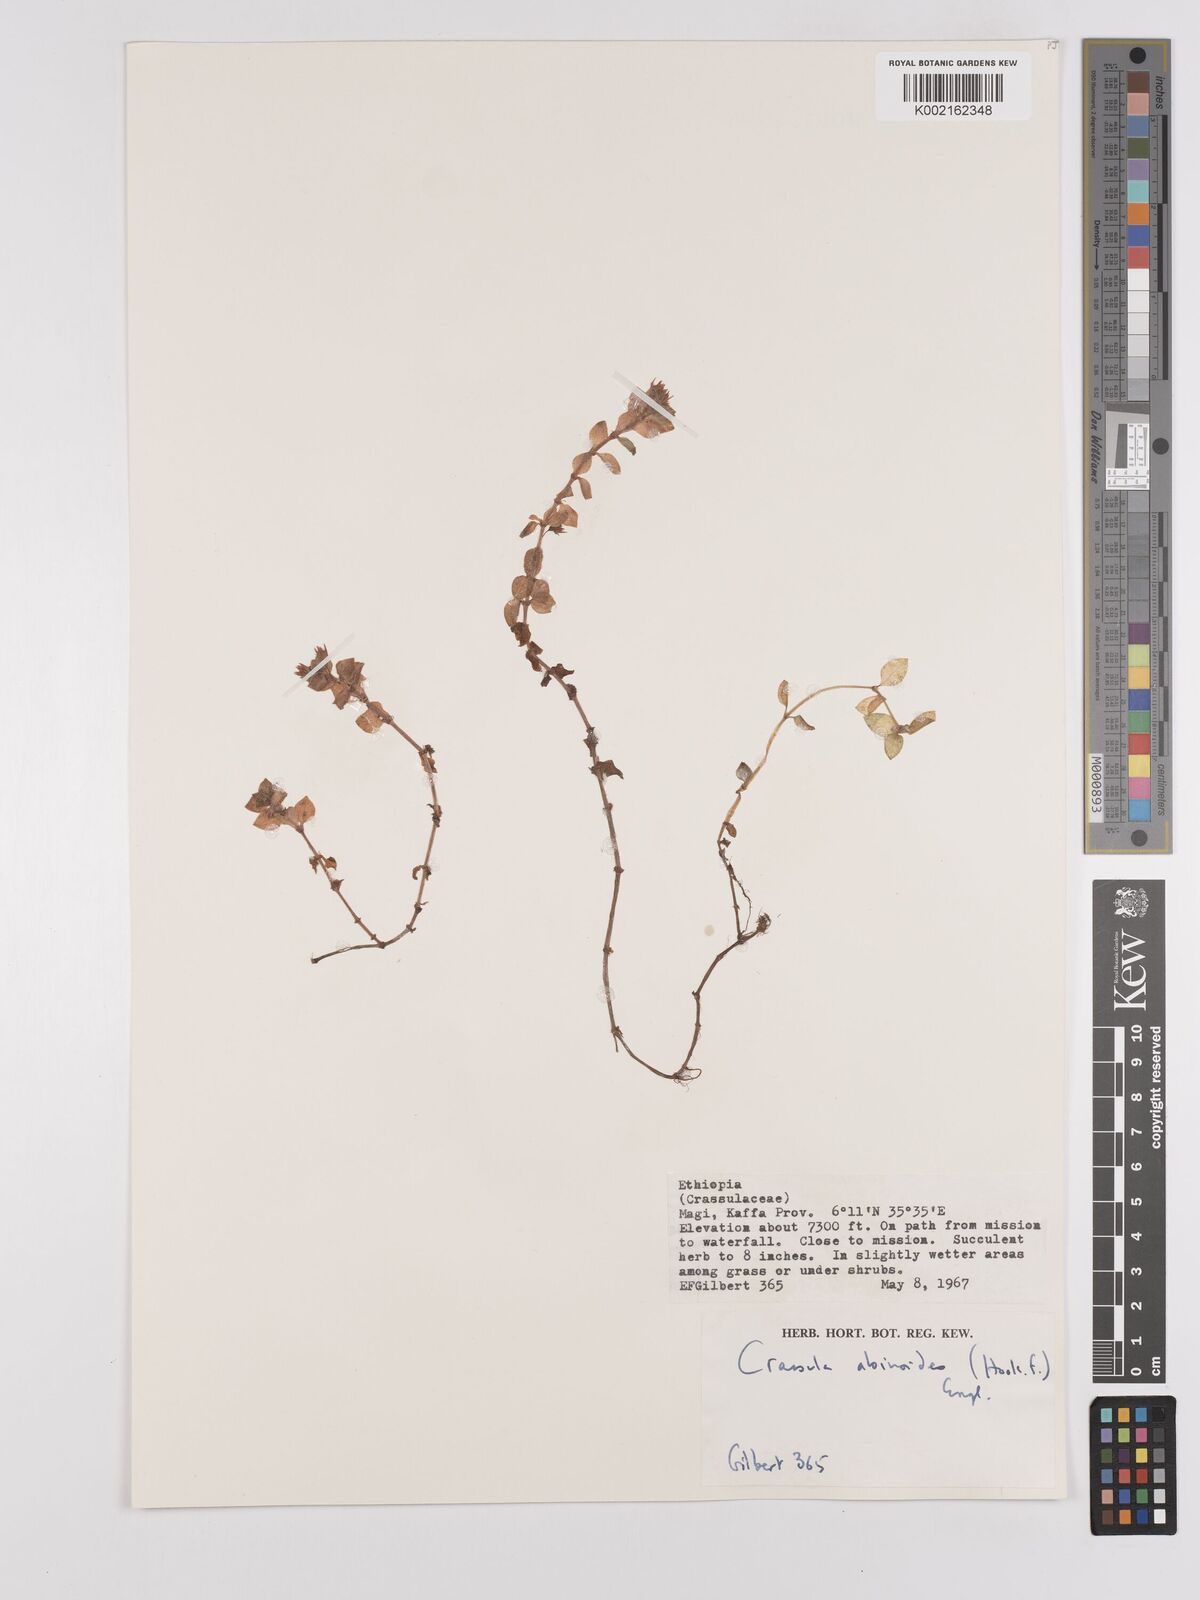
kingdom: Plantae
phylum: Tracheophyta
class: Magnoliopsida
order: Saxifragales
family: Crassulaceae
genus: Crassula
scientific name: Crassula alsinoides
